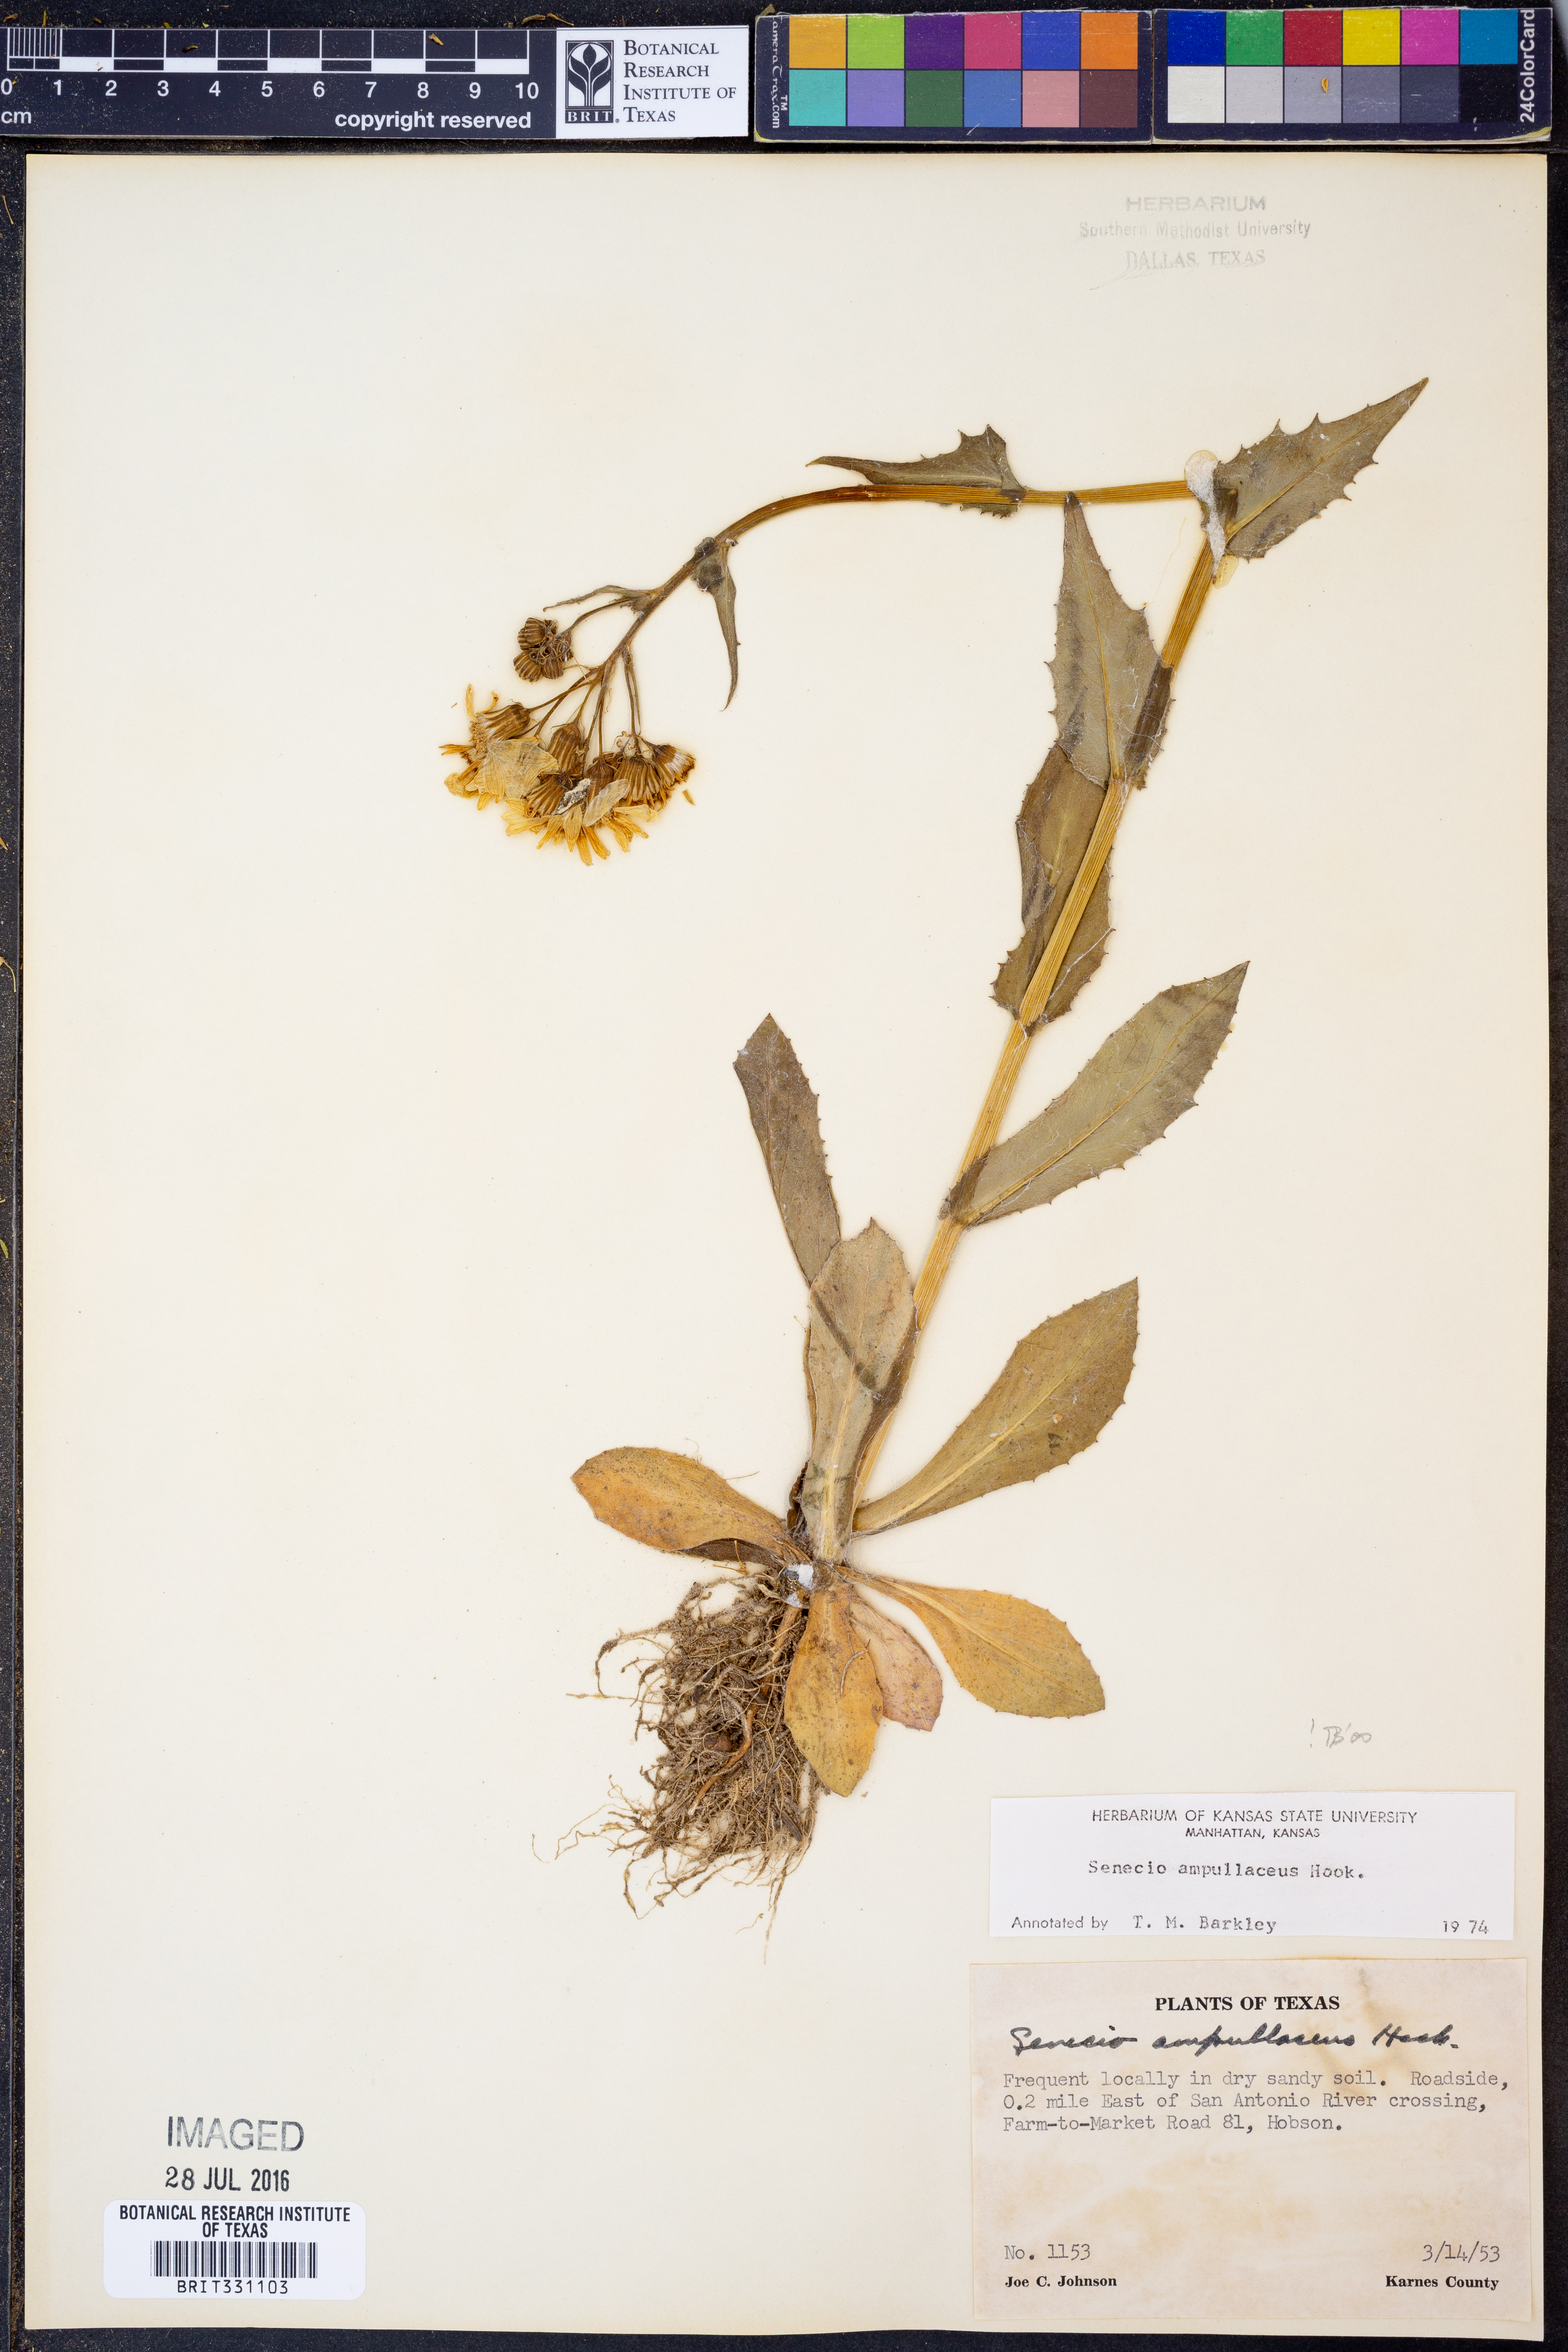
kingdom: Plantae
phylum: Tracheophyta
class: Magnoliopsida
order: Asterales
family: Asteraceae
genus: Senecio
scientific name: Senecio ampullaceus
